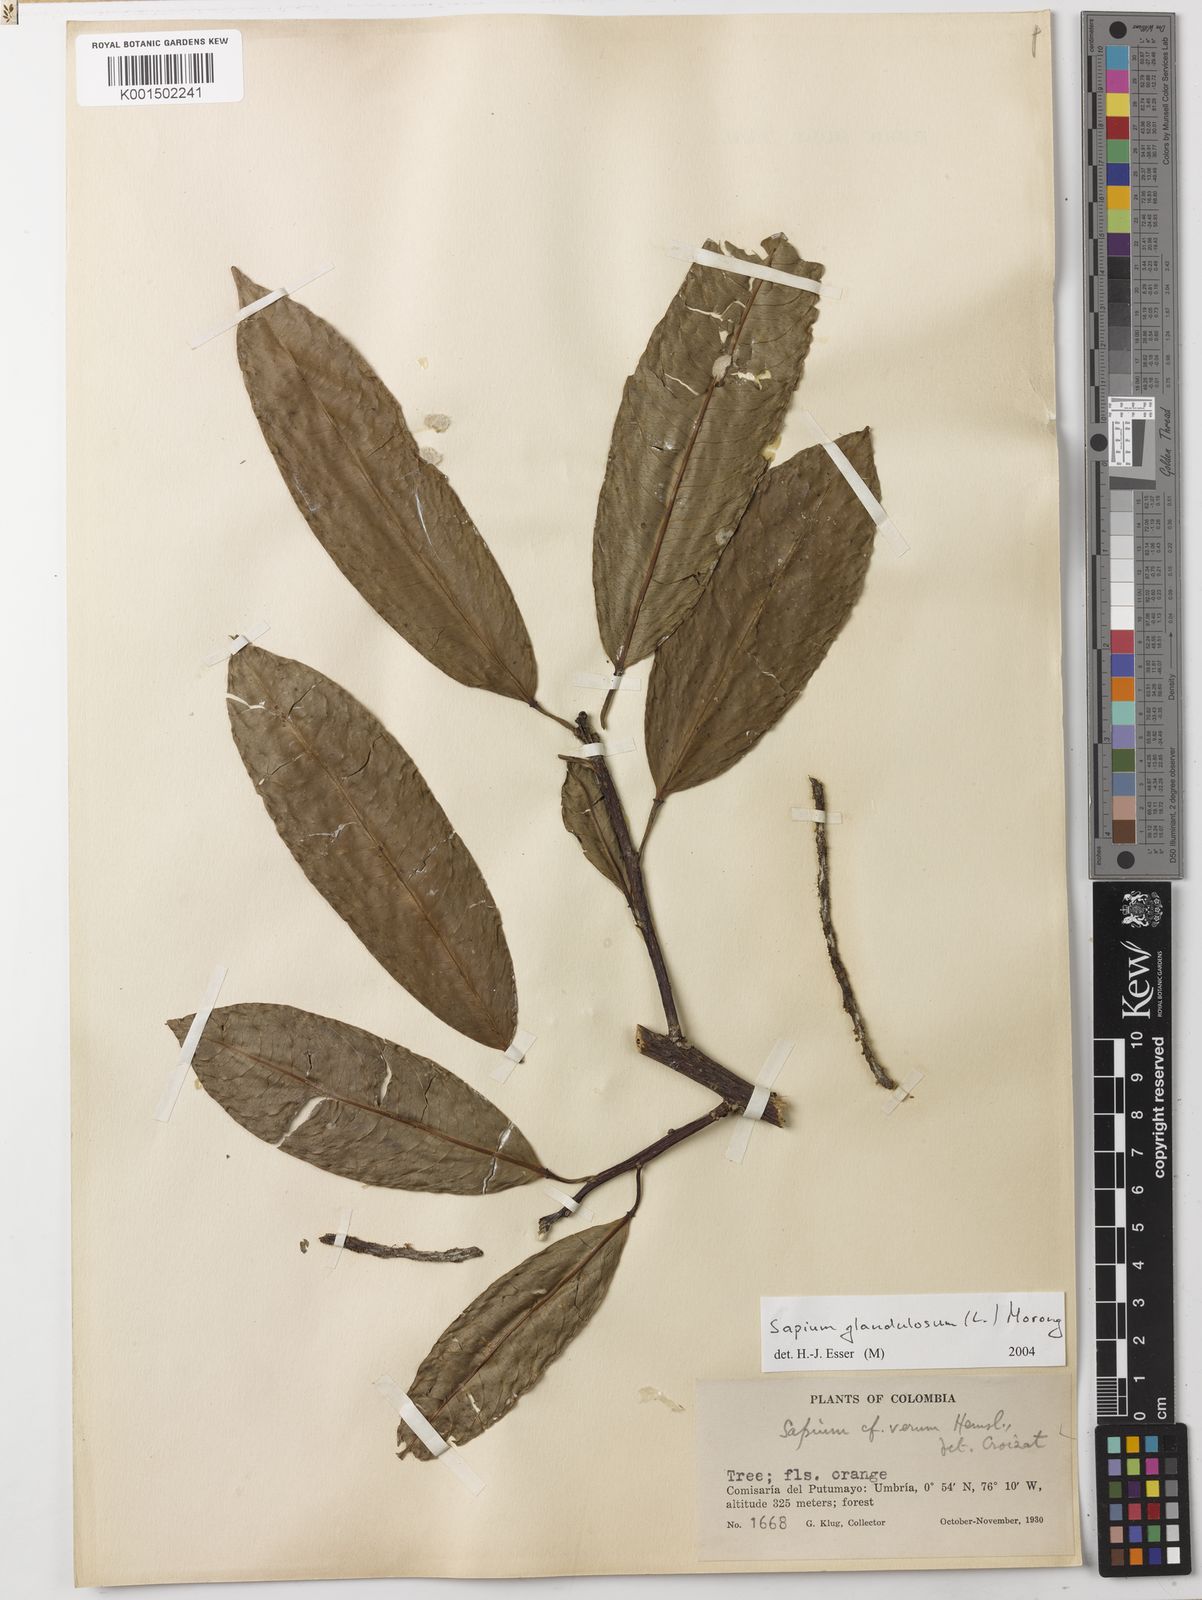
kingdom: Plantae
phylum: Tracheophyta
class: Magnoliopsida
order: Malpighiales
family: Euphorbiaceae
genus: Sapium
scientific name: Sapium glandulosum
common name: Milktree
